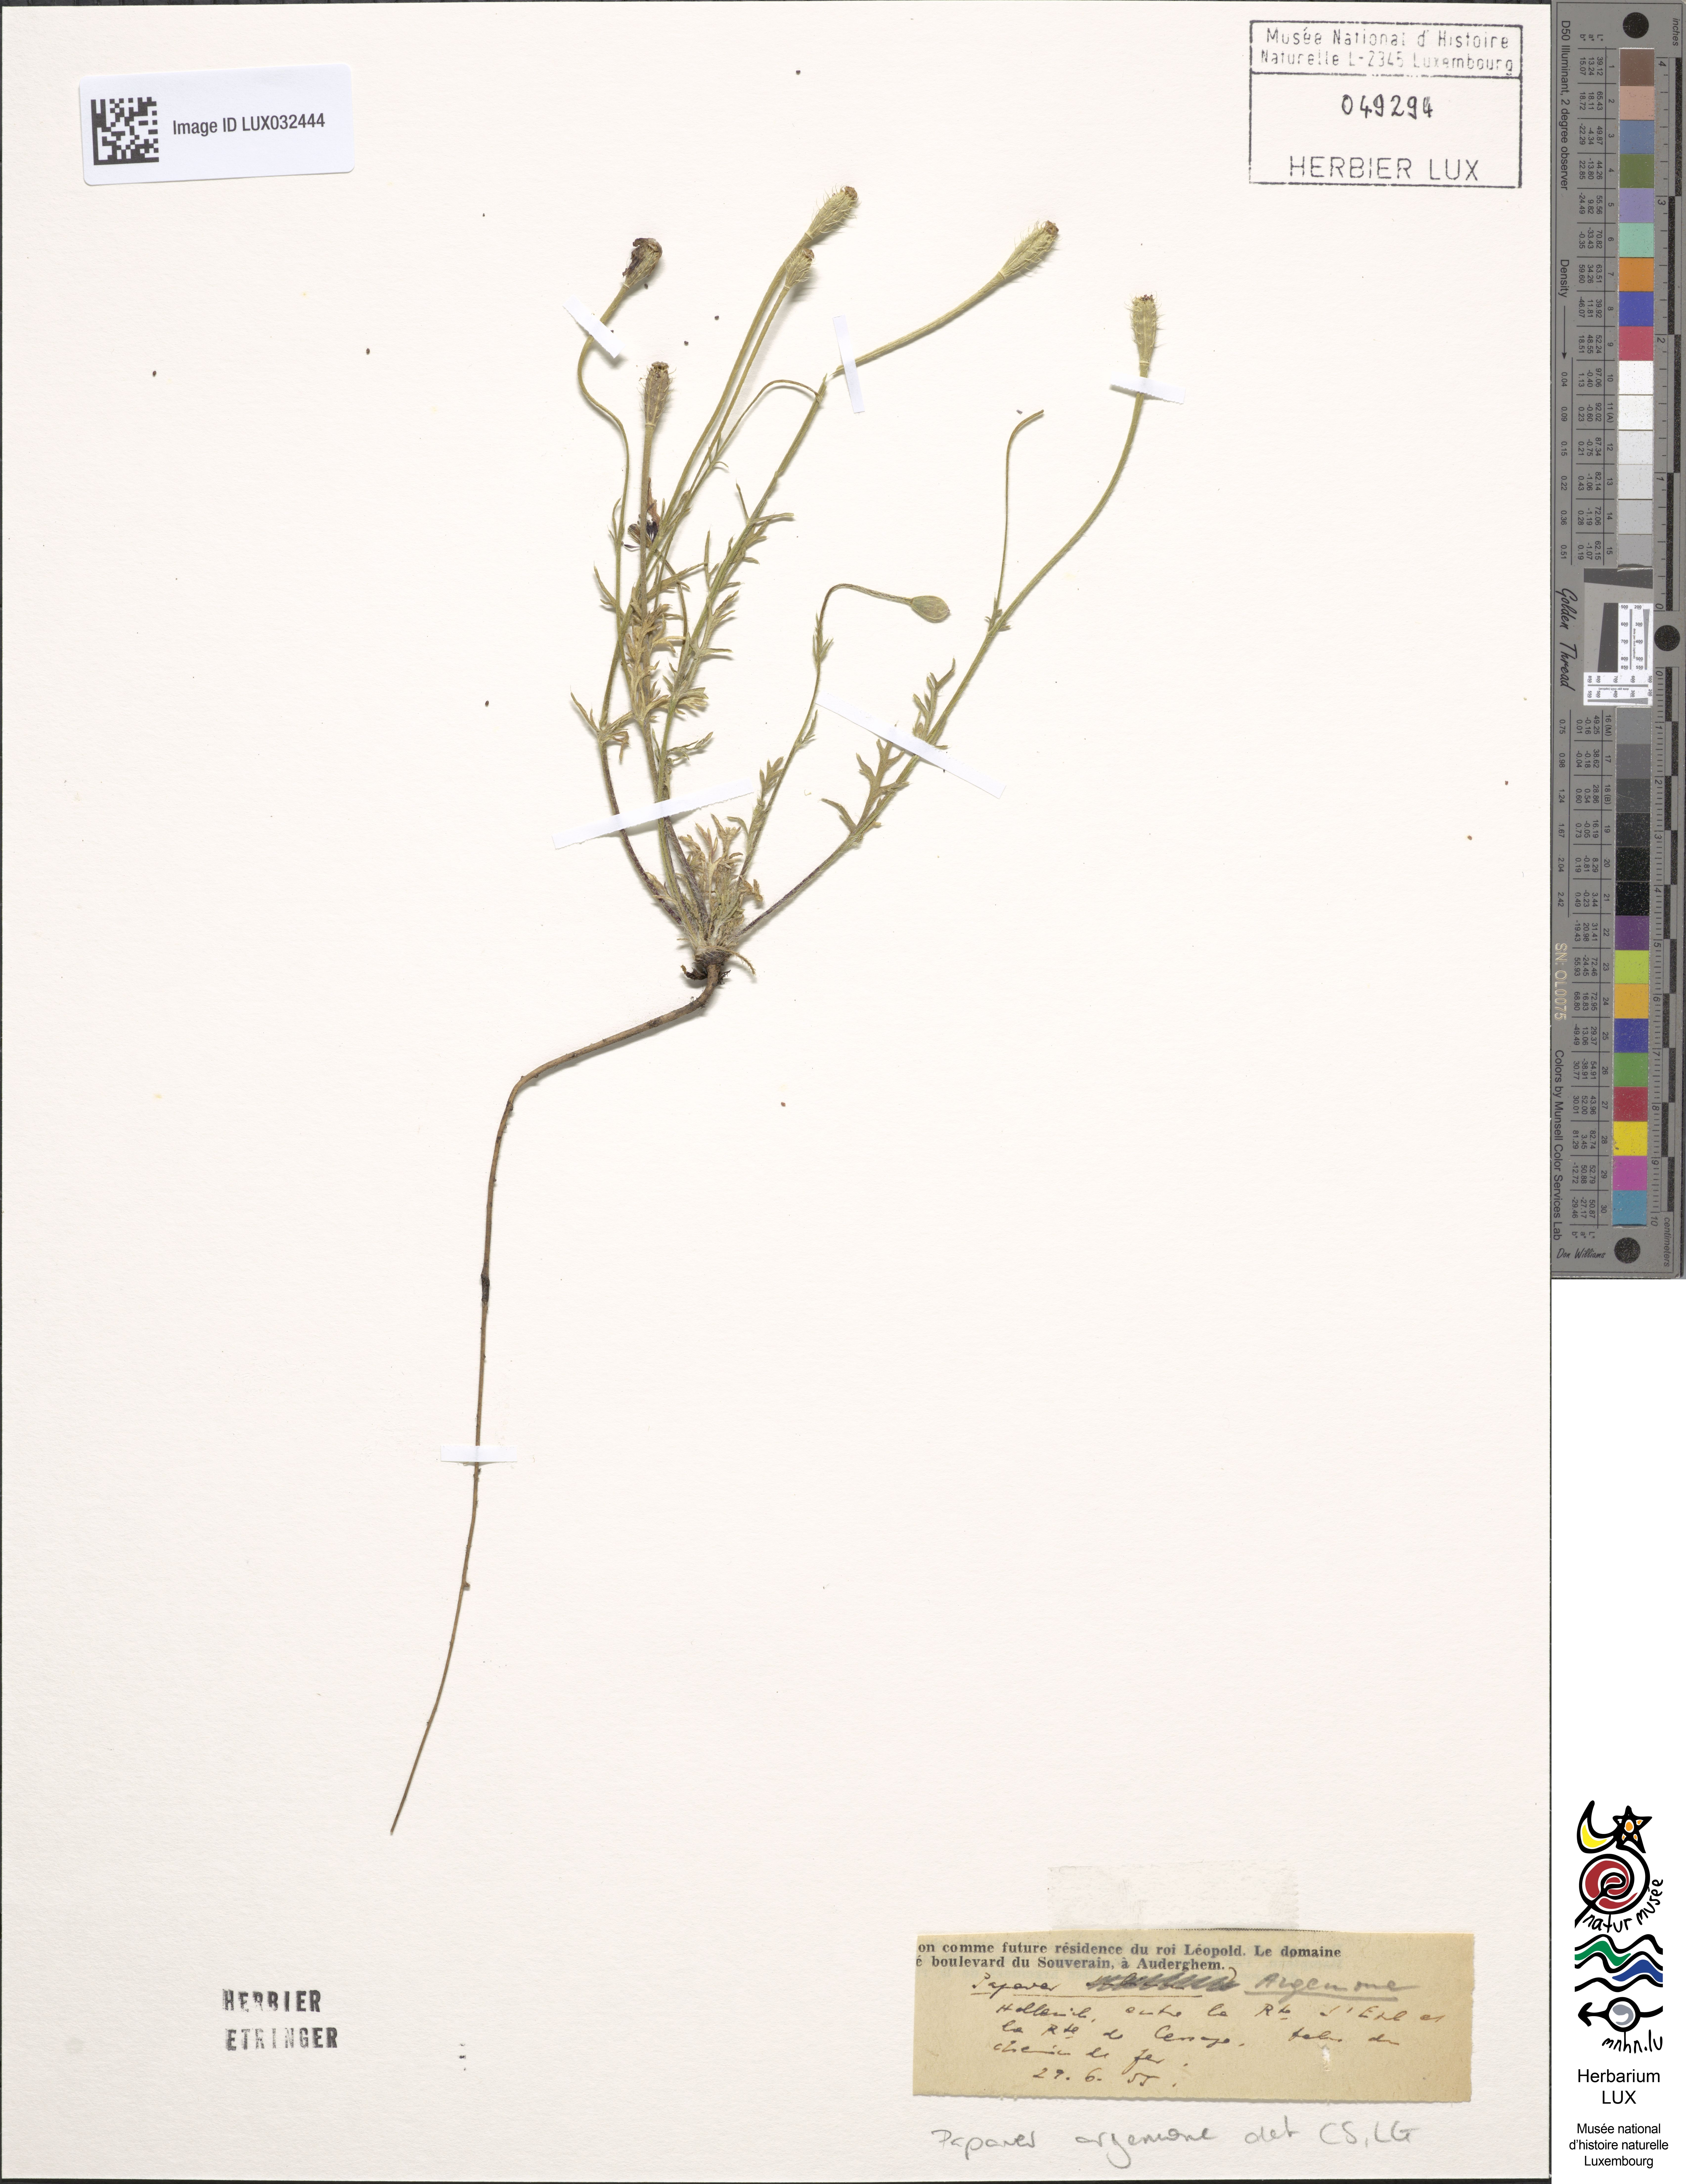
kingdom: Plantae
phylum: Tracheophyta
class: Magnoliopsida
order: Ranunculales
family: Papaveraceae
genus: Roemeria
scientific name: Roemeria argemone
